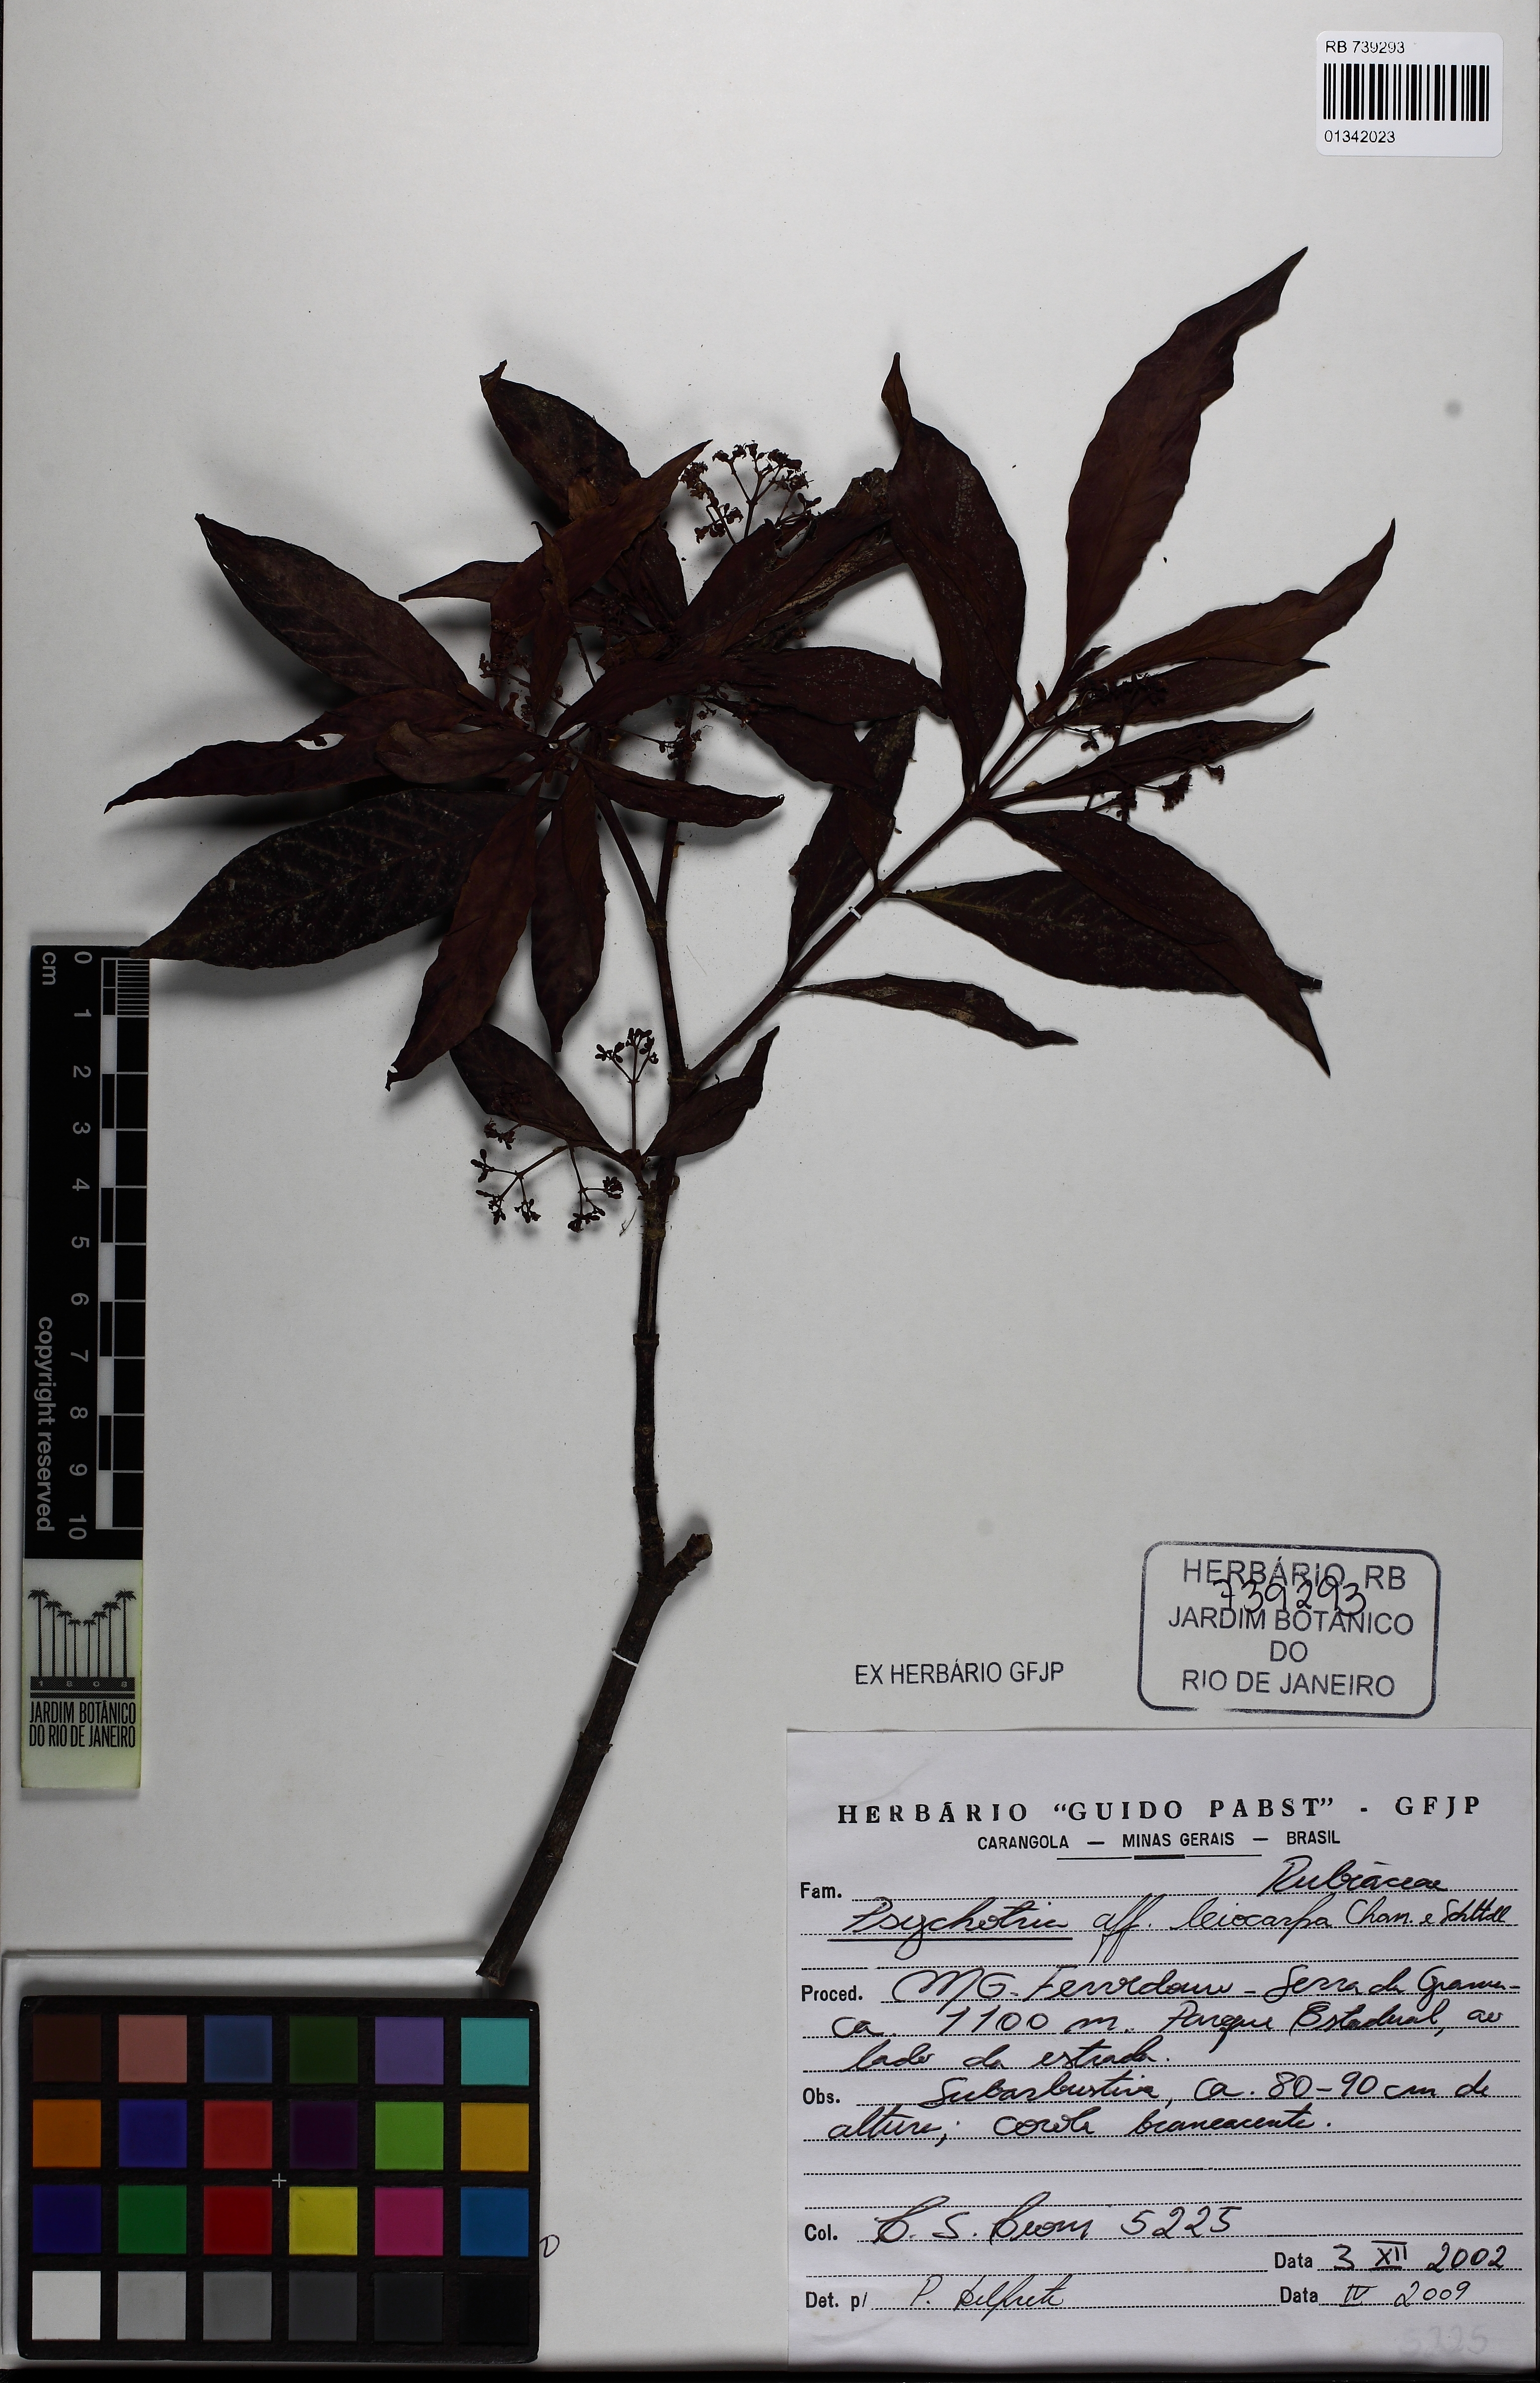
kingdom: Plantae
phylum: Tracheophyta
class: Magnoliopsida
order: Gentianales
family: Rubiaceae
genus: Psychotria
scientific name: Psychotria niveobarbata
